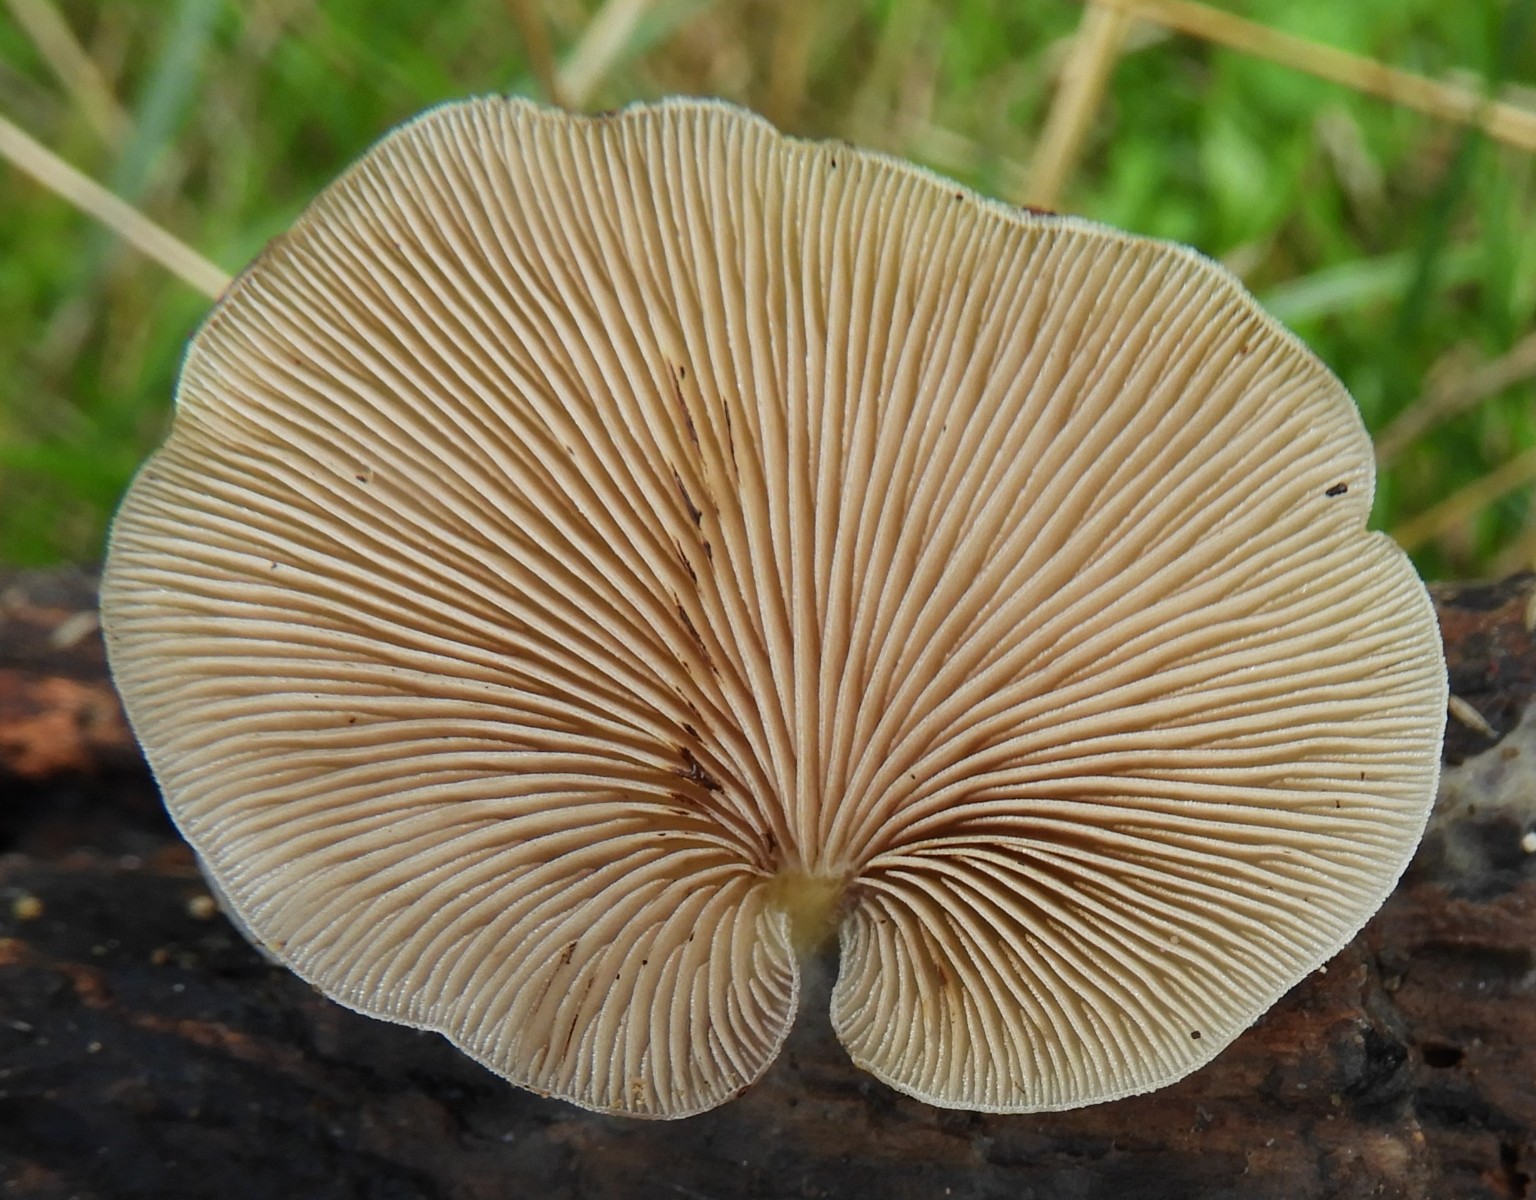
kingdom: Fungi
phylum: Basidiomycota
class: Agaricomycetes
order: Agaricales
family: Crepidotaceae
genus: Crepidotus
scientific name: Crepidotus mollis
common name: blød muslingesvamp
